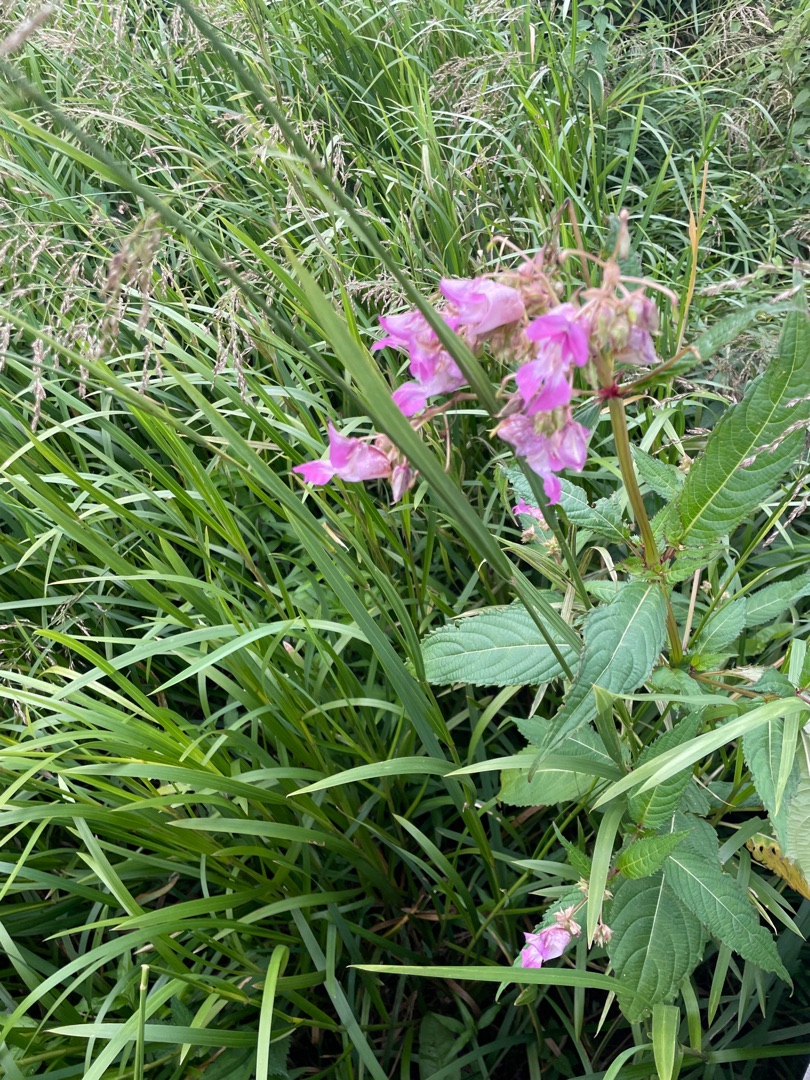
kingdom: Plantae
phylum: Tracheophyta
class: Magnoliopsida
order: Ericales
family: Balsaminaceae
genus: Impatiens
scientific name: Impatiens glandulifera
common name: Kæmpe-balsamin
